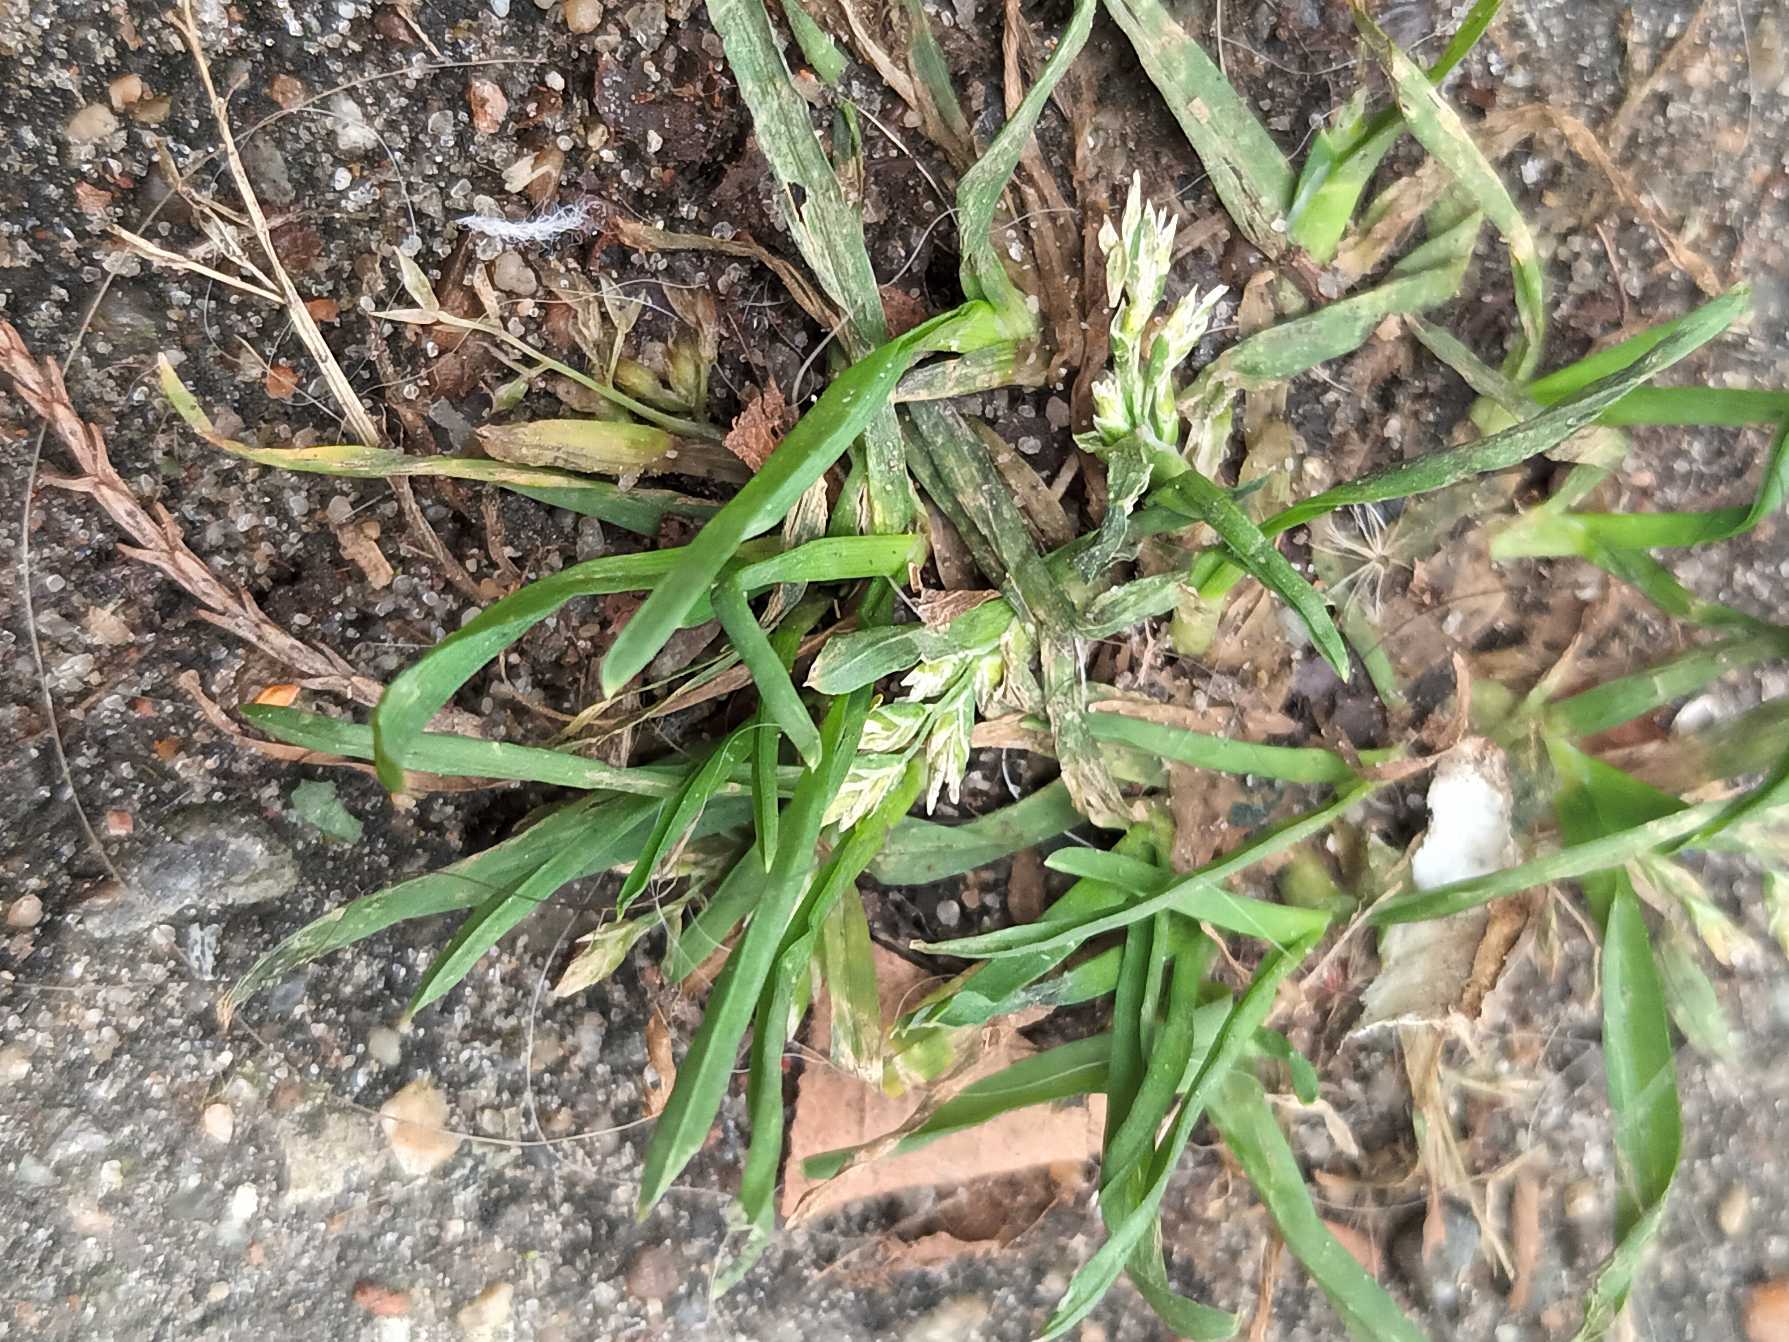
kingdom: Plantae
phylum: Tracheophyta
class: Liliopsida
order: Poales
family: Poaceae
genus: Poa
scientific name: Poa annua
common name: Enårig rapgræs
